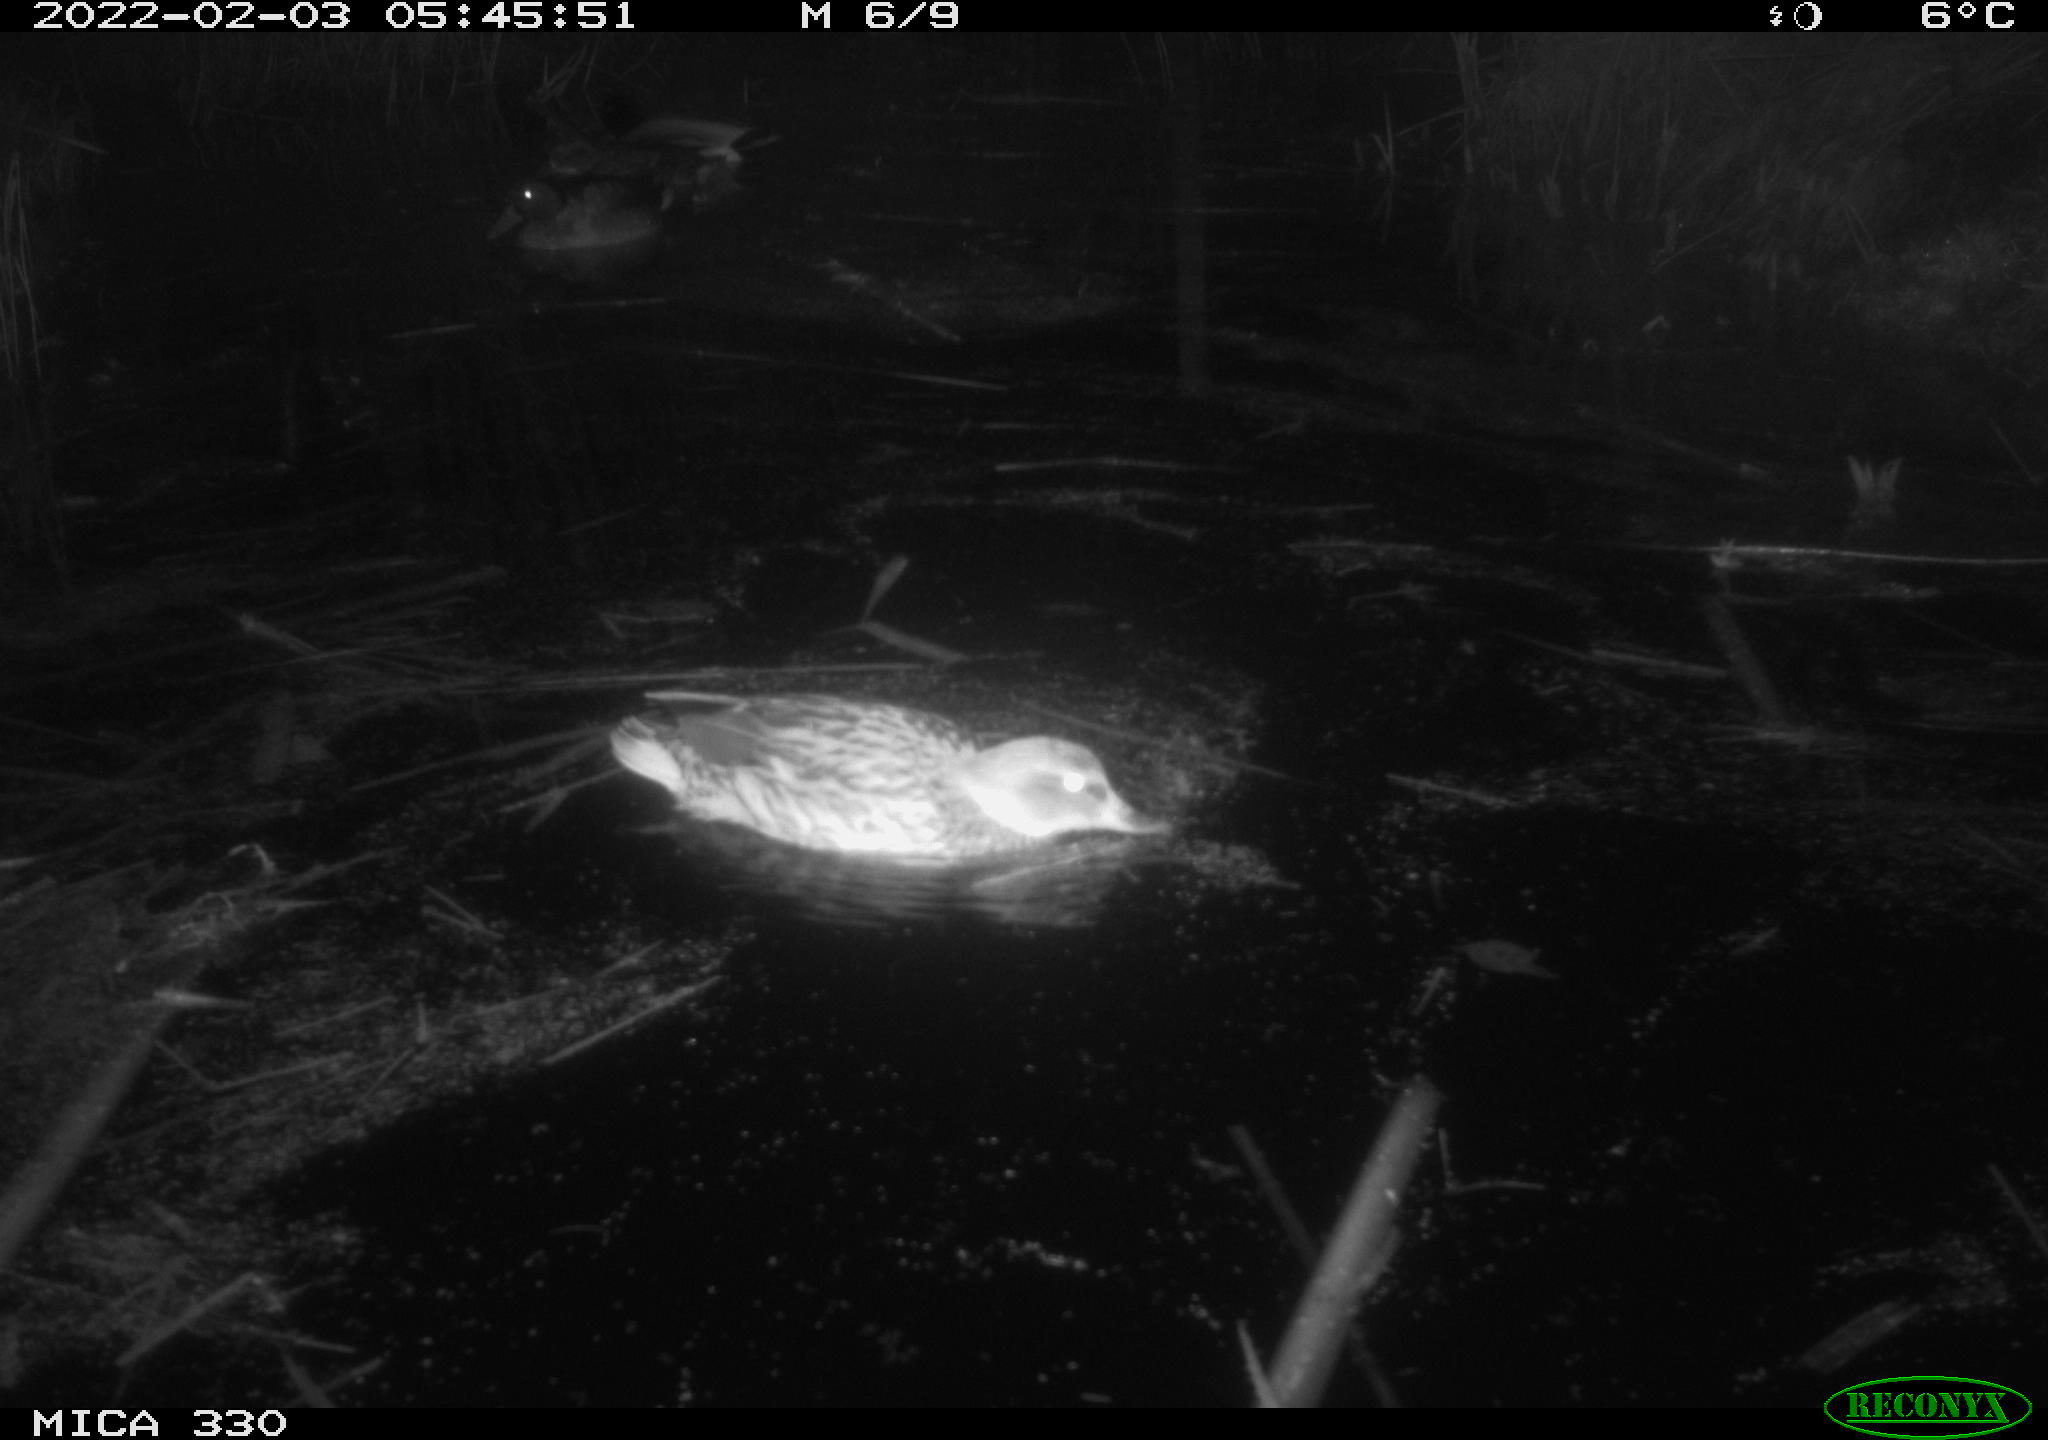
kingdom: Animalia
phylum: Chordata
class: Aves
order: Anseriformes
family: Anatidae
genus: Anas
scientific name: Anas platyrhynchos
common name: Mallard
